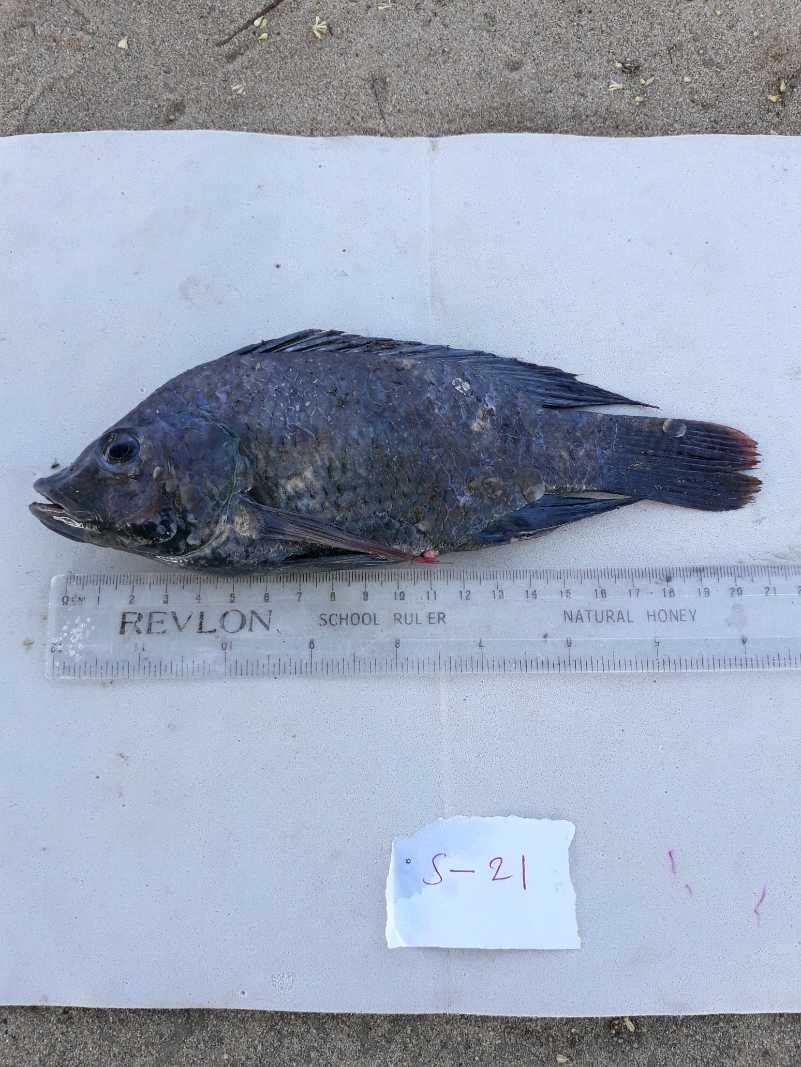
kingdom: Animalia
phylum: Chordata
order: Perciformes
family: Cichlidae
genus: Oreochromis
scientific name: Oreochromis urolepis
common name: Wami tilapia
